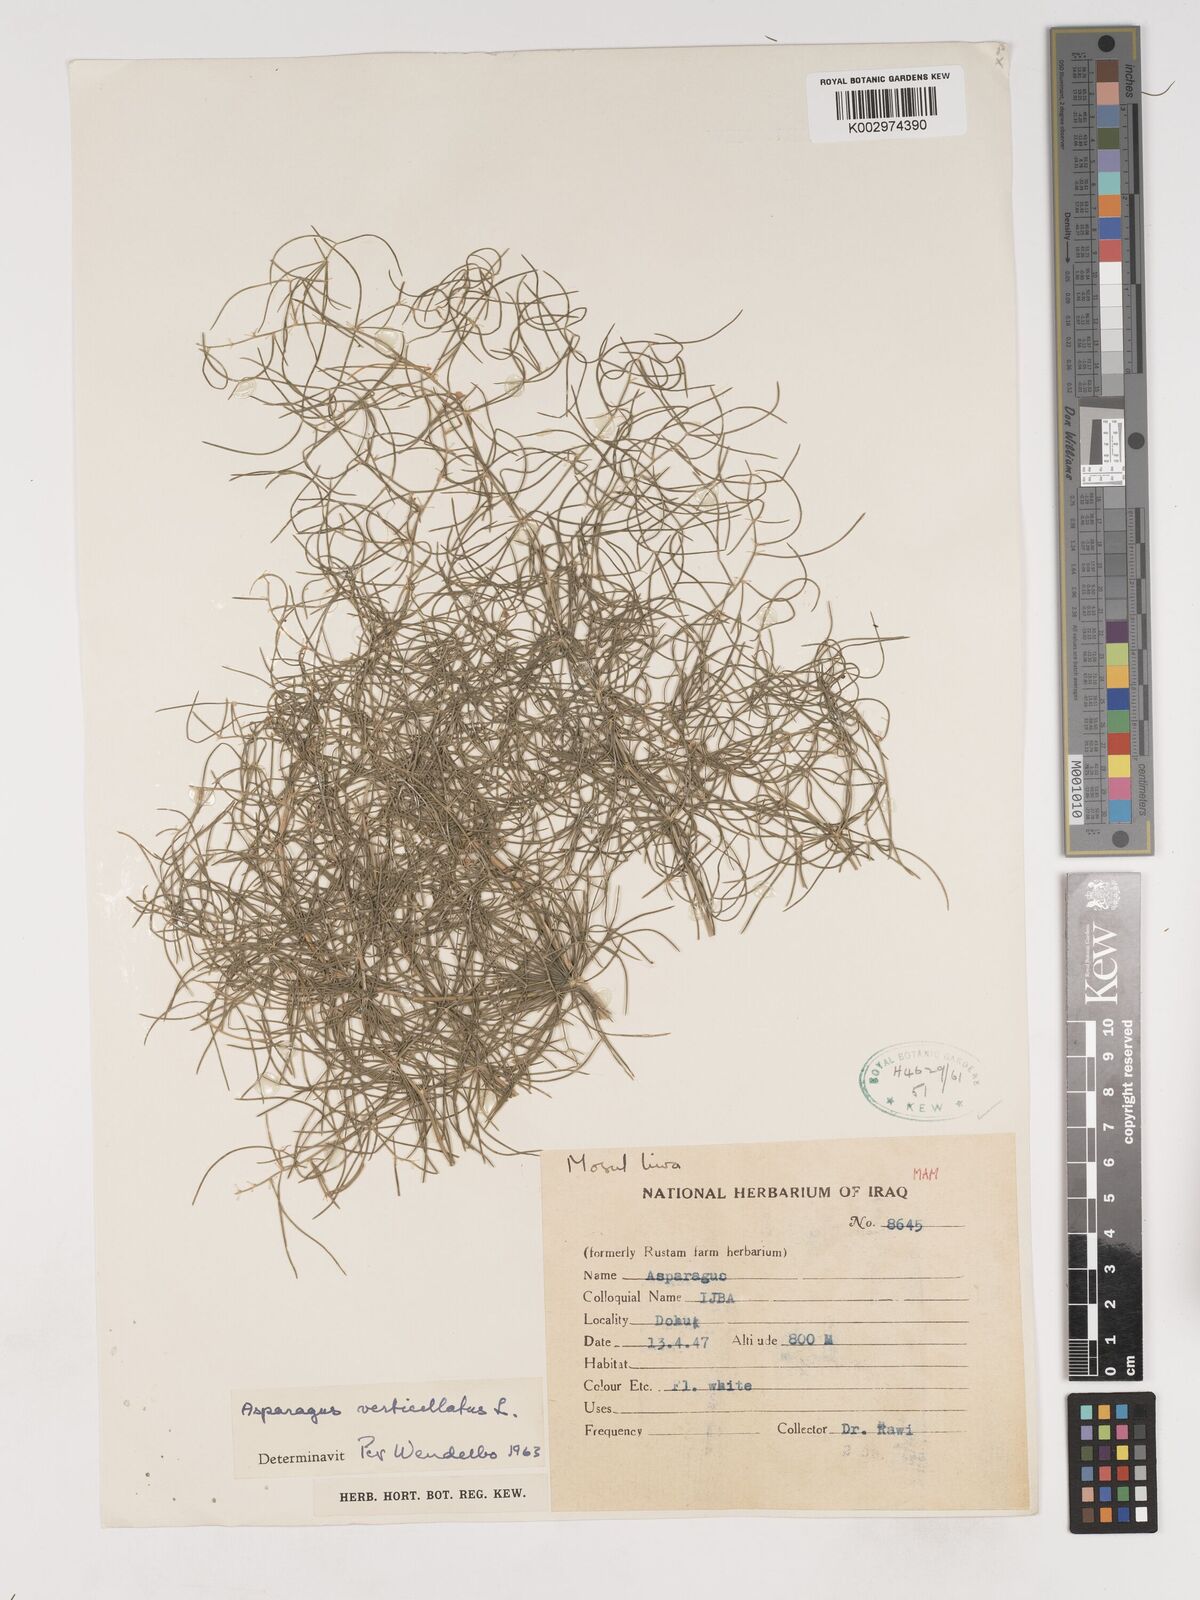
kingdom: Plantae
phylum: Tracheophyta
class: Liliopsida
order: Asparagales
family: Asparagaceae
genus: Asparagus
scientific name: Asparagus verticillatus
